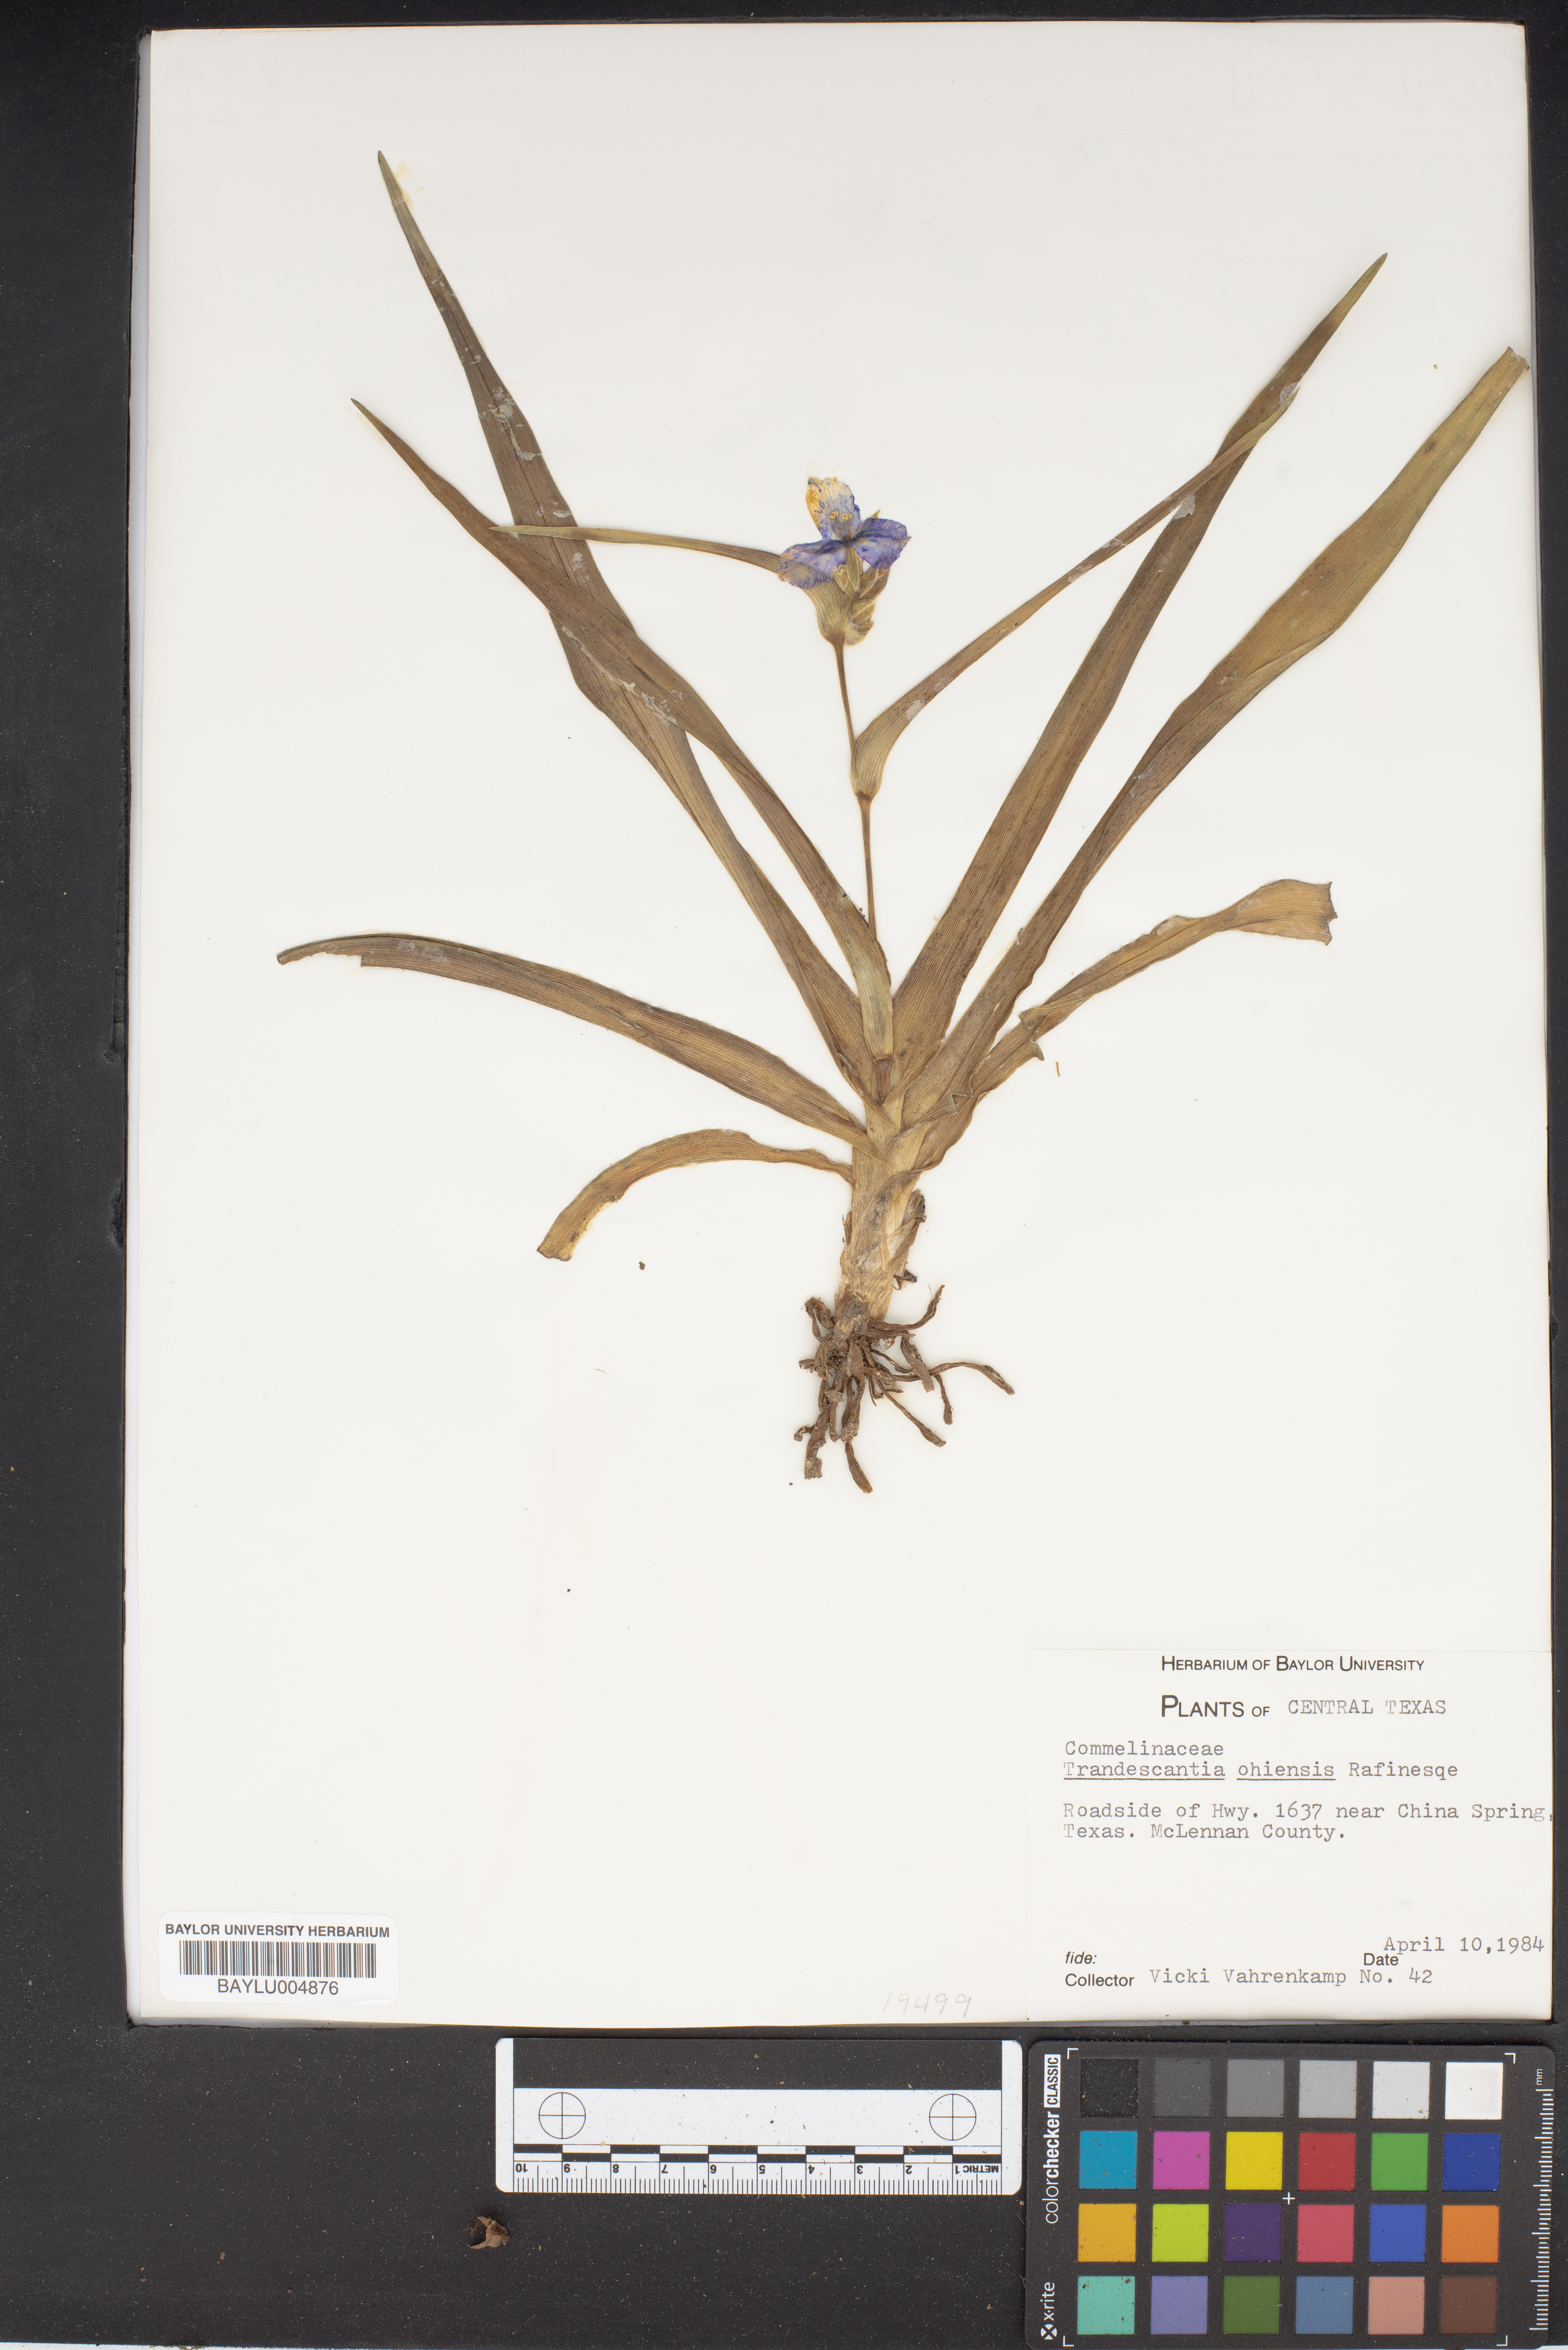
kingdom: Plantae
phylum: Tracheophyta
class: Liliopsida
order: Commelinales
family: Commelinaceae
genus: Tradescantia
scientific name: Tradescantia ohiensis
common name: Ohio spiderwort
